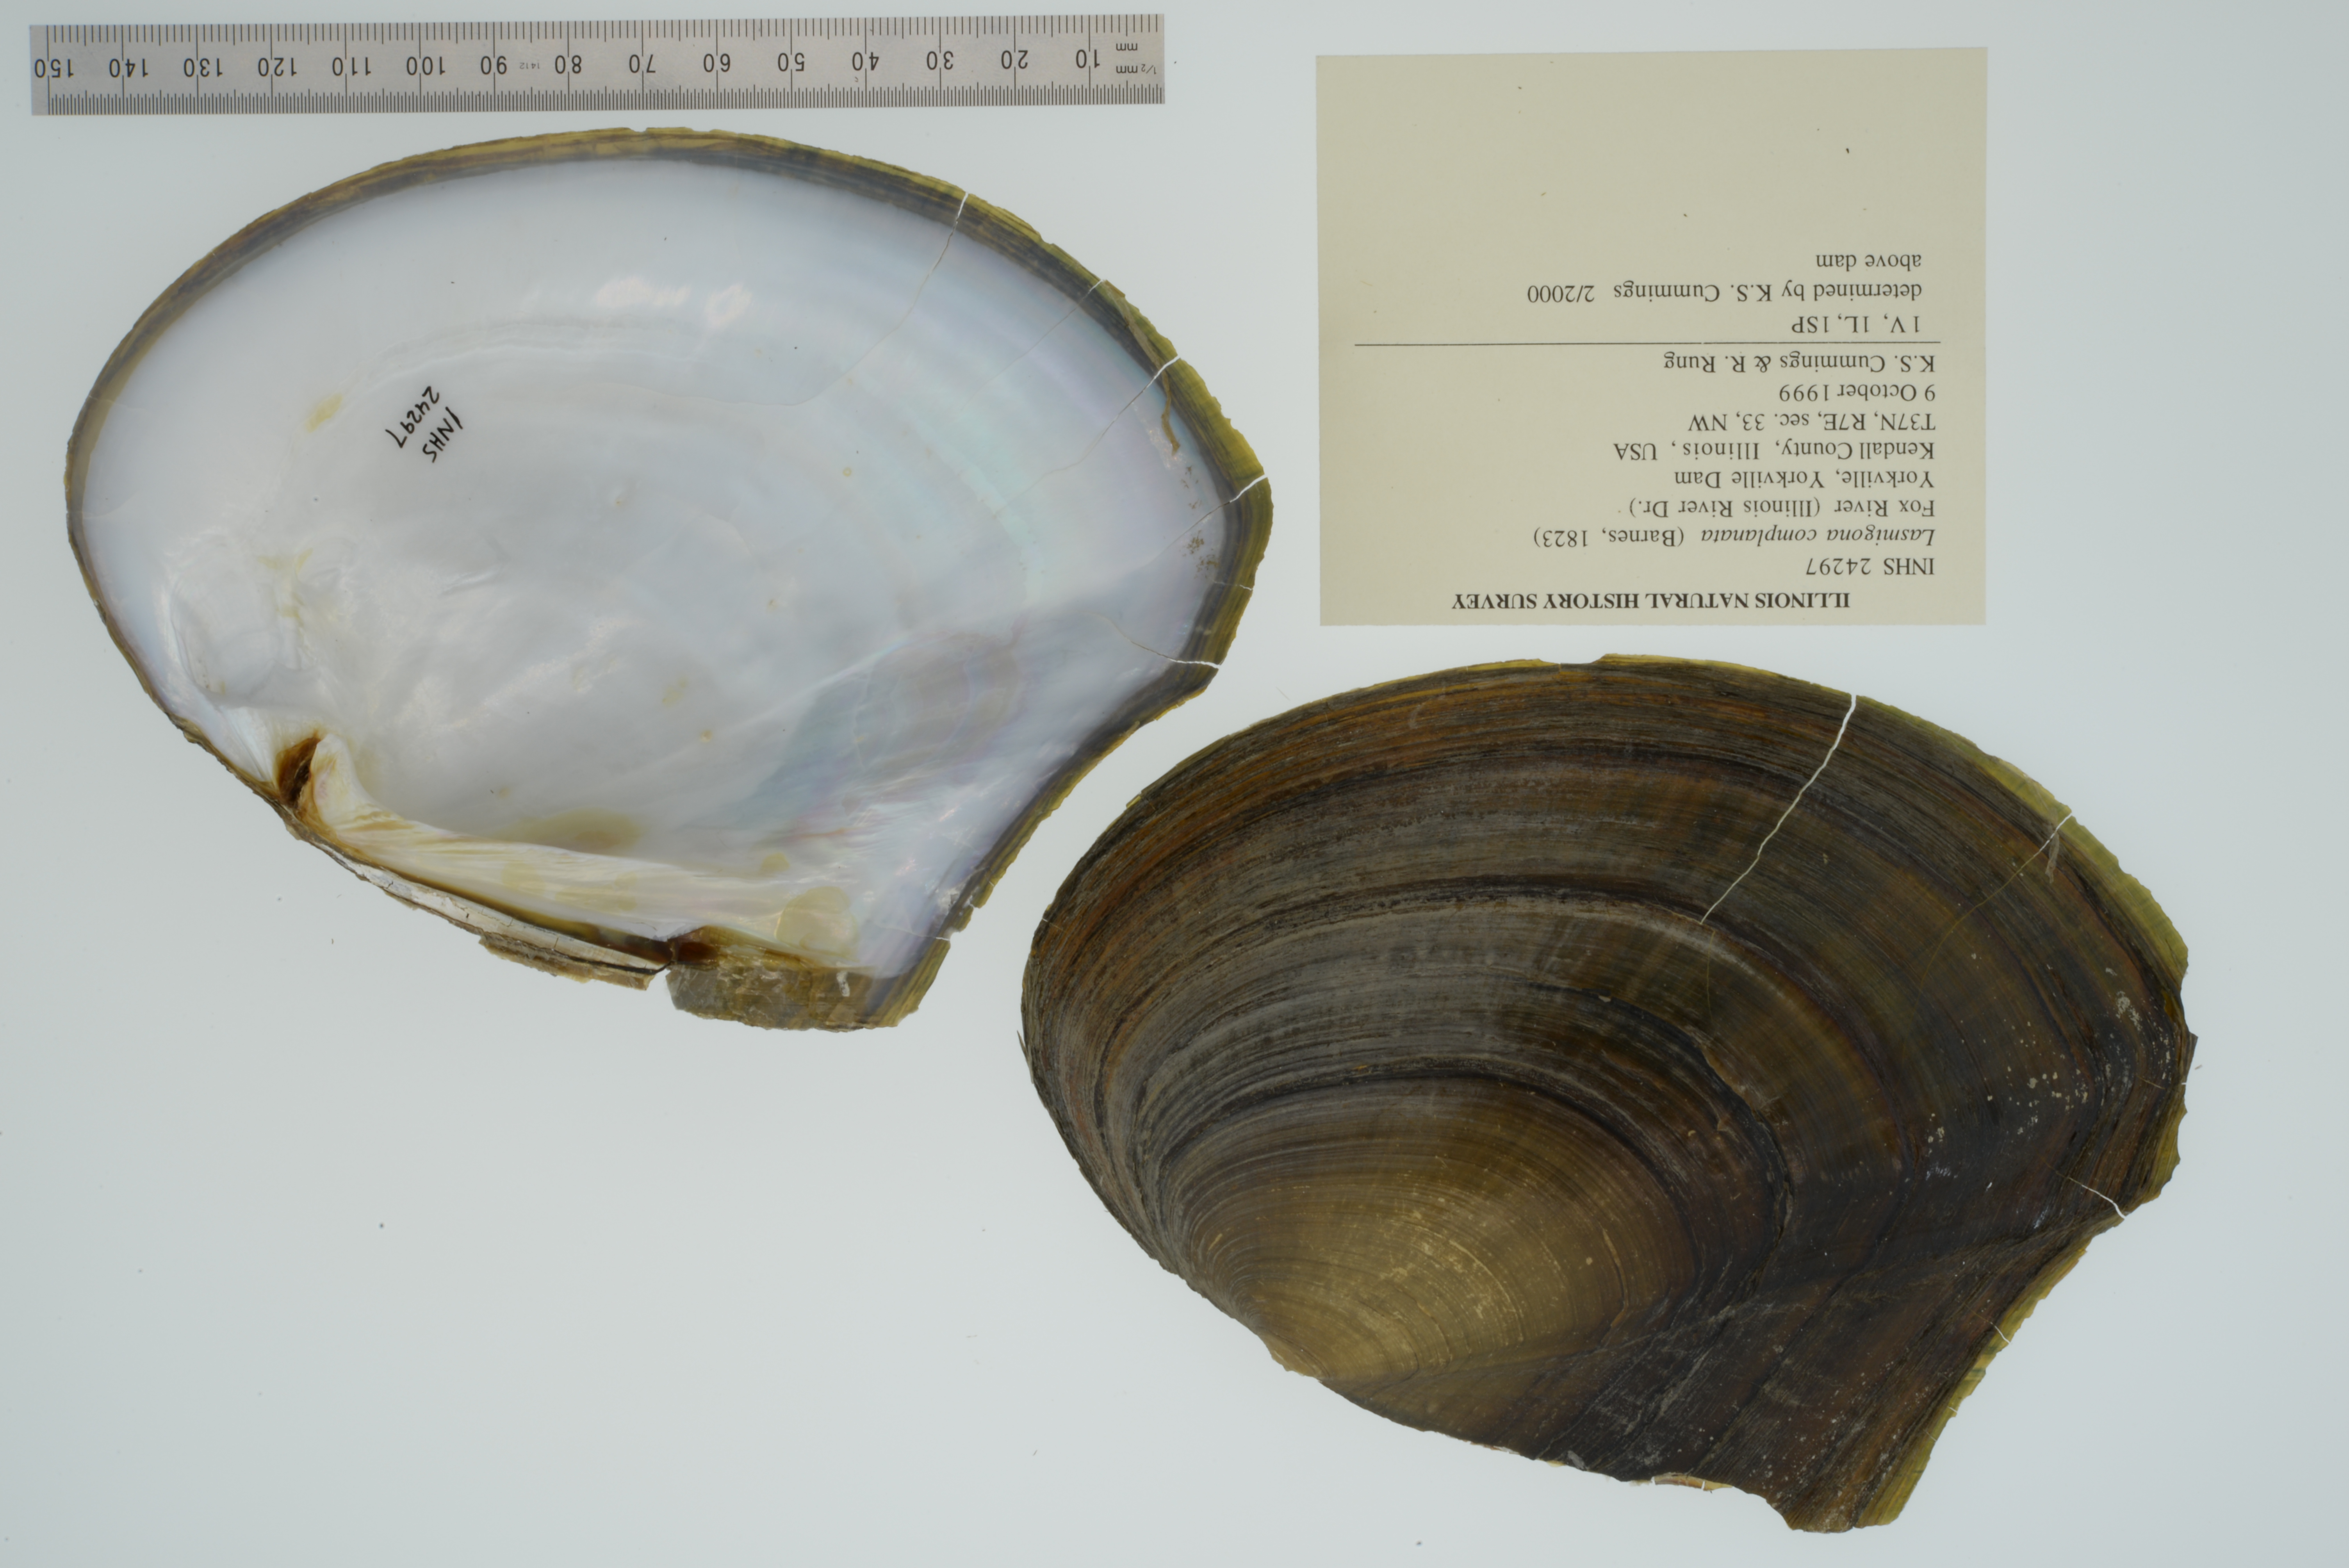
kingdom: Animalia
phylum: Mollusca
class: Bivalvia
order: Unionida
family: Unionidae
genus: Lasmigona
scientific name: Lasmigona complanata
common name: White heelsplitter
